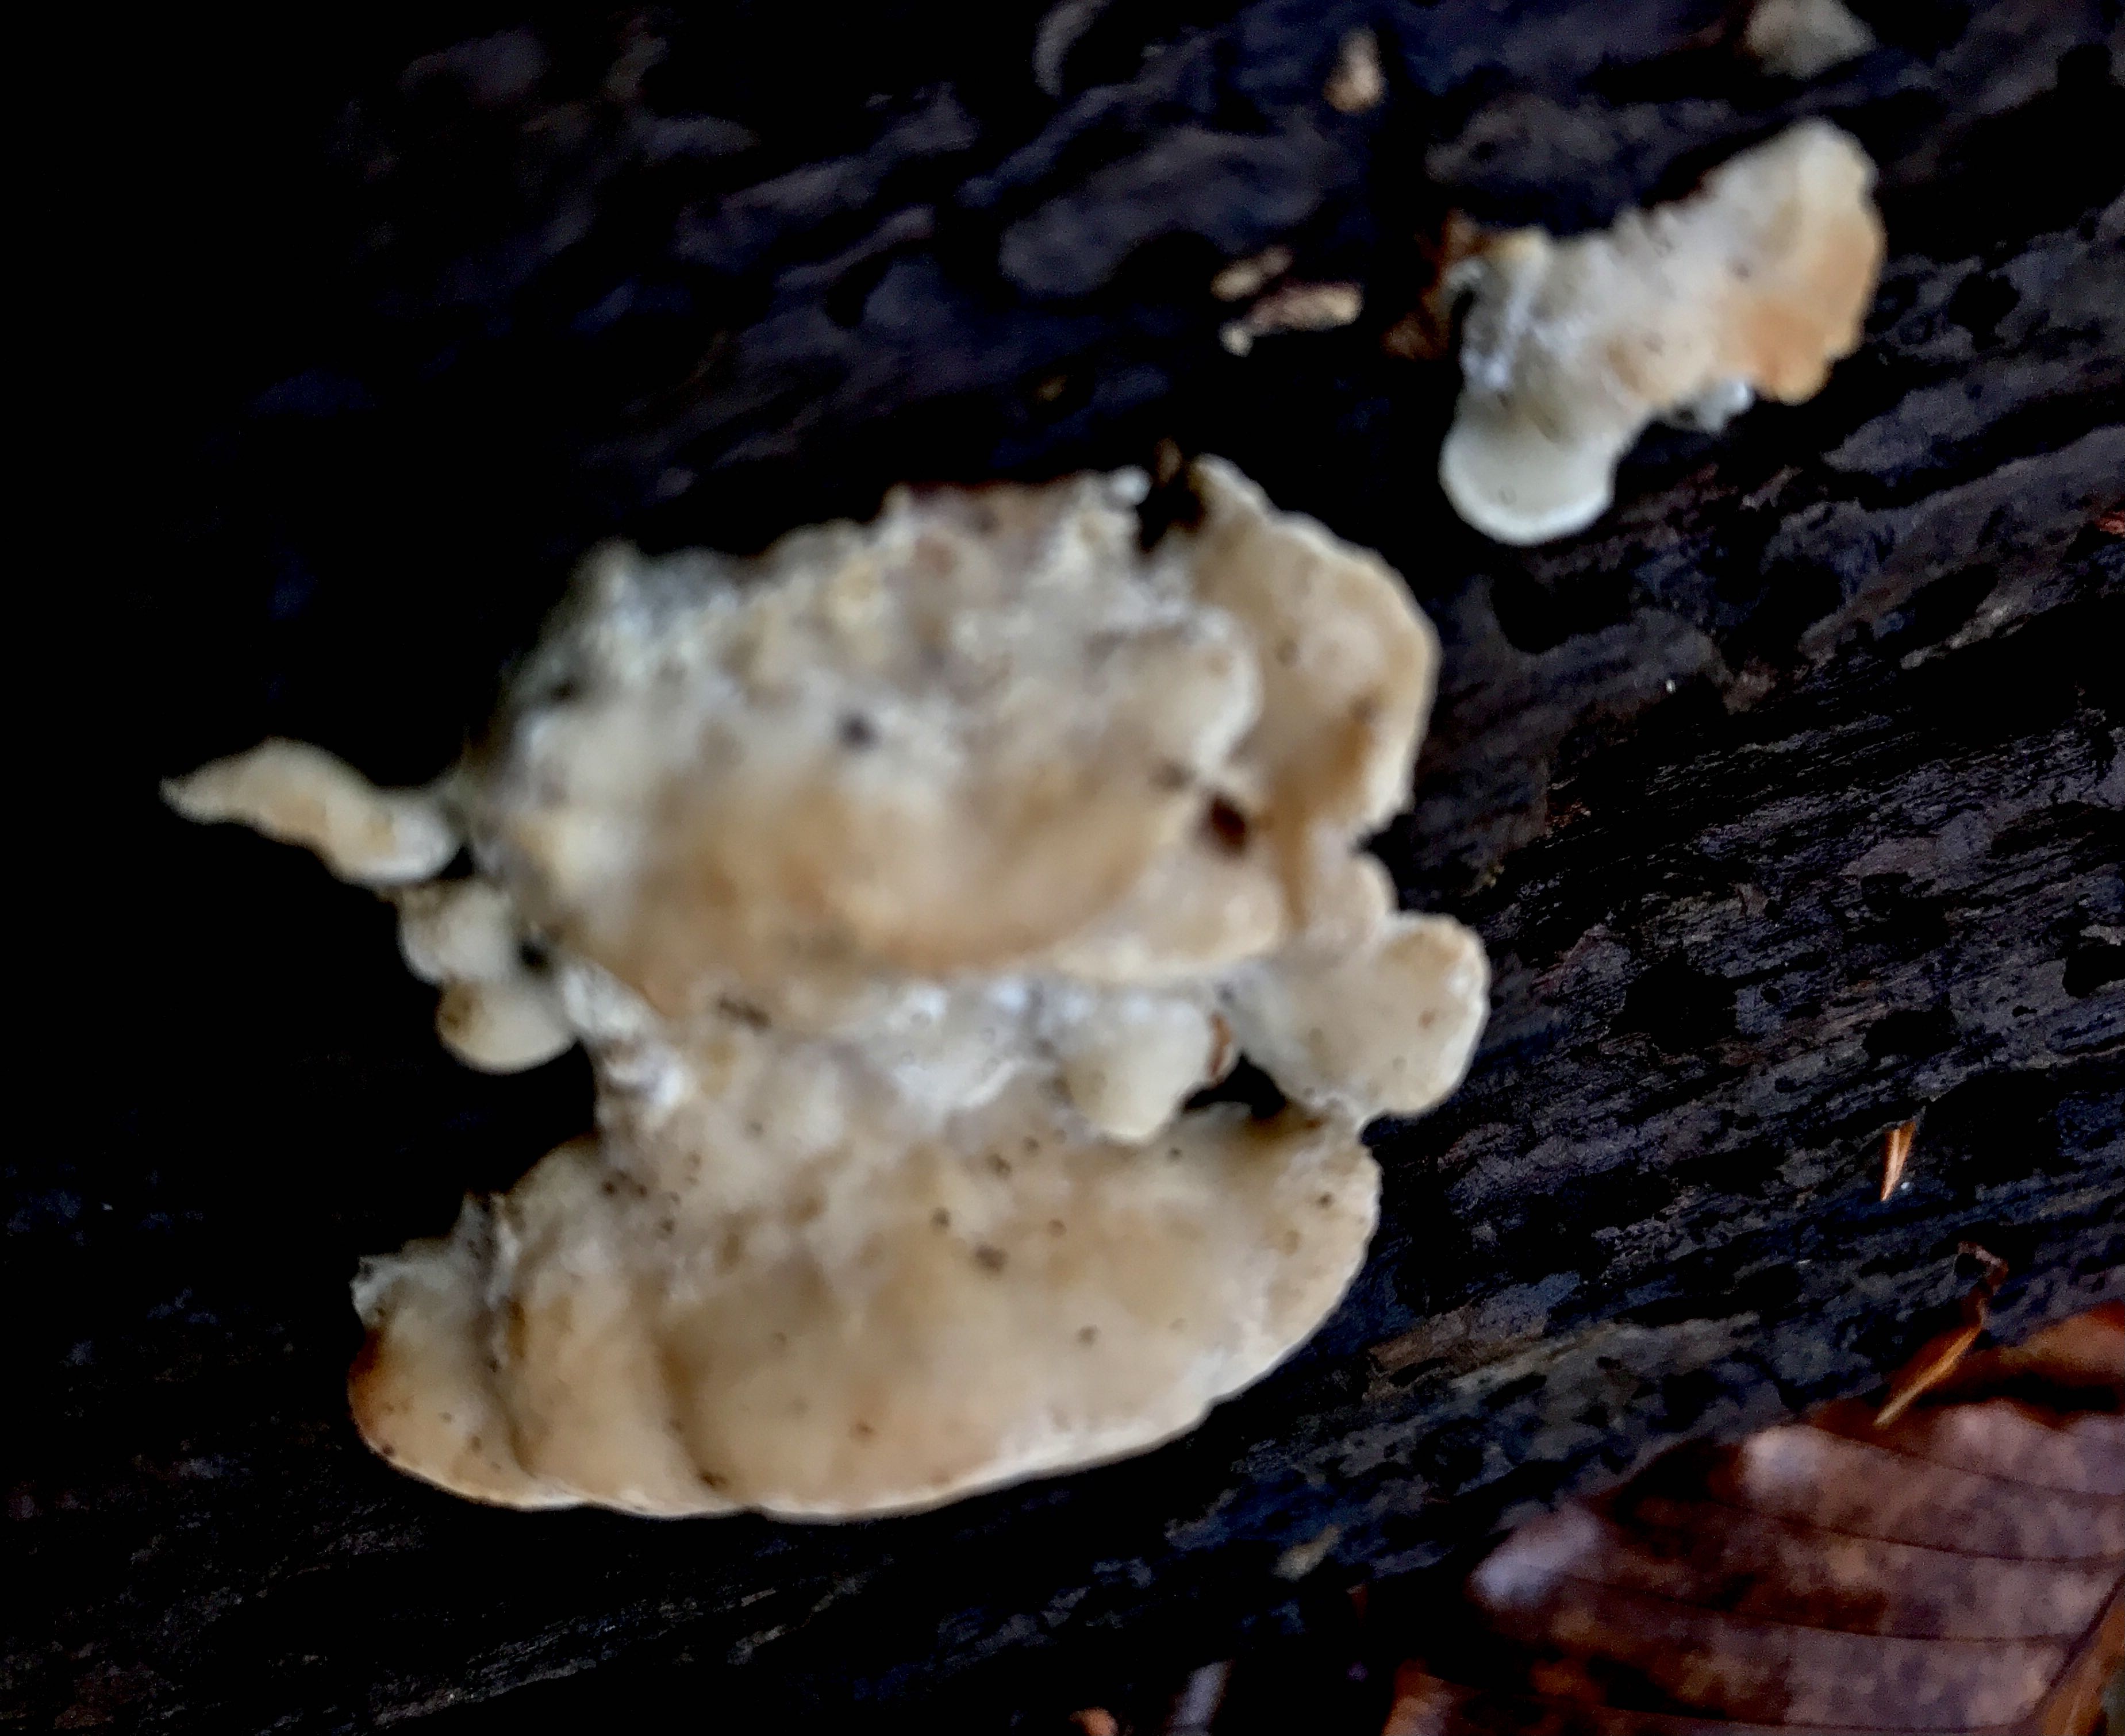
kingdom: Fungi
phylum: Basidiomycota
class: Agaricomycetes
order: Polyporales
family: Steccherinaceae
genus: Antrodiella
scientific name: Antrodiella
